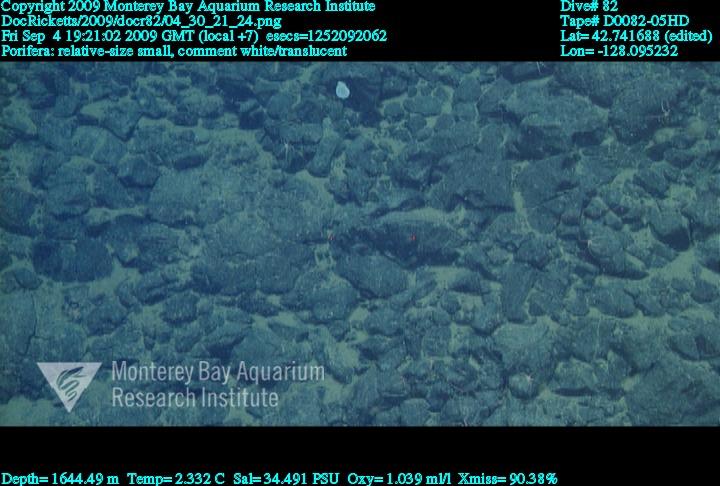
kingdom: Animalia
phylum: Porifera
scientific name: Porifera
